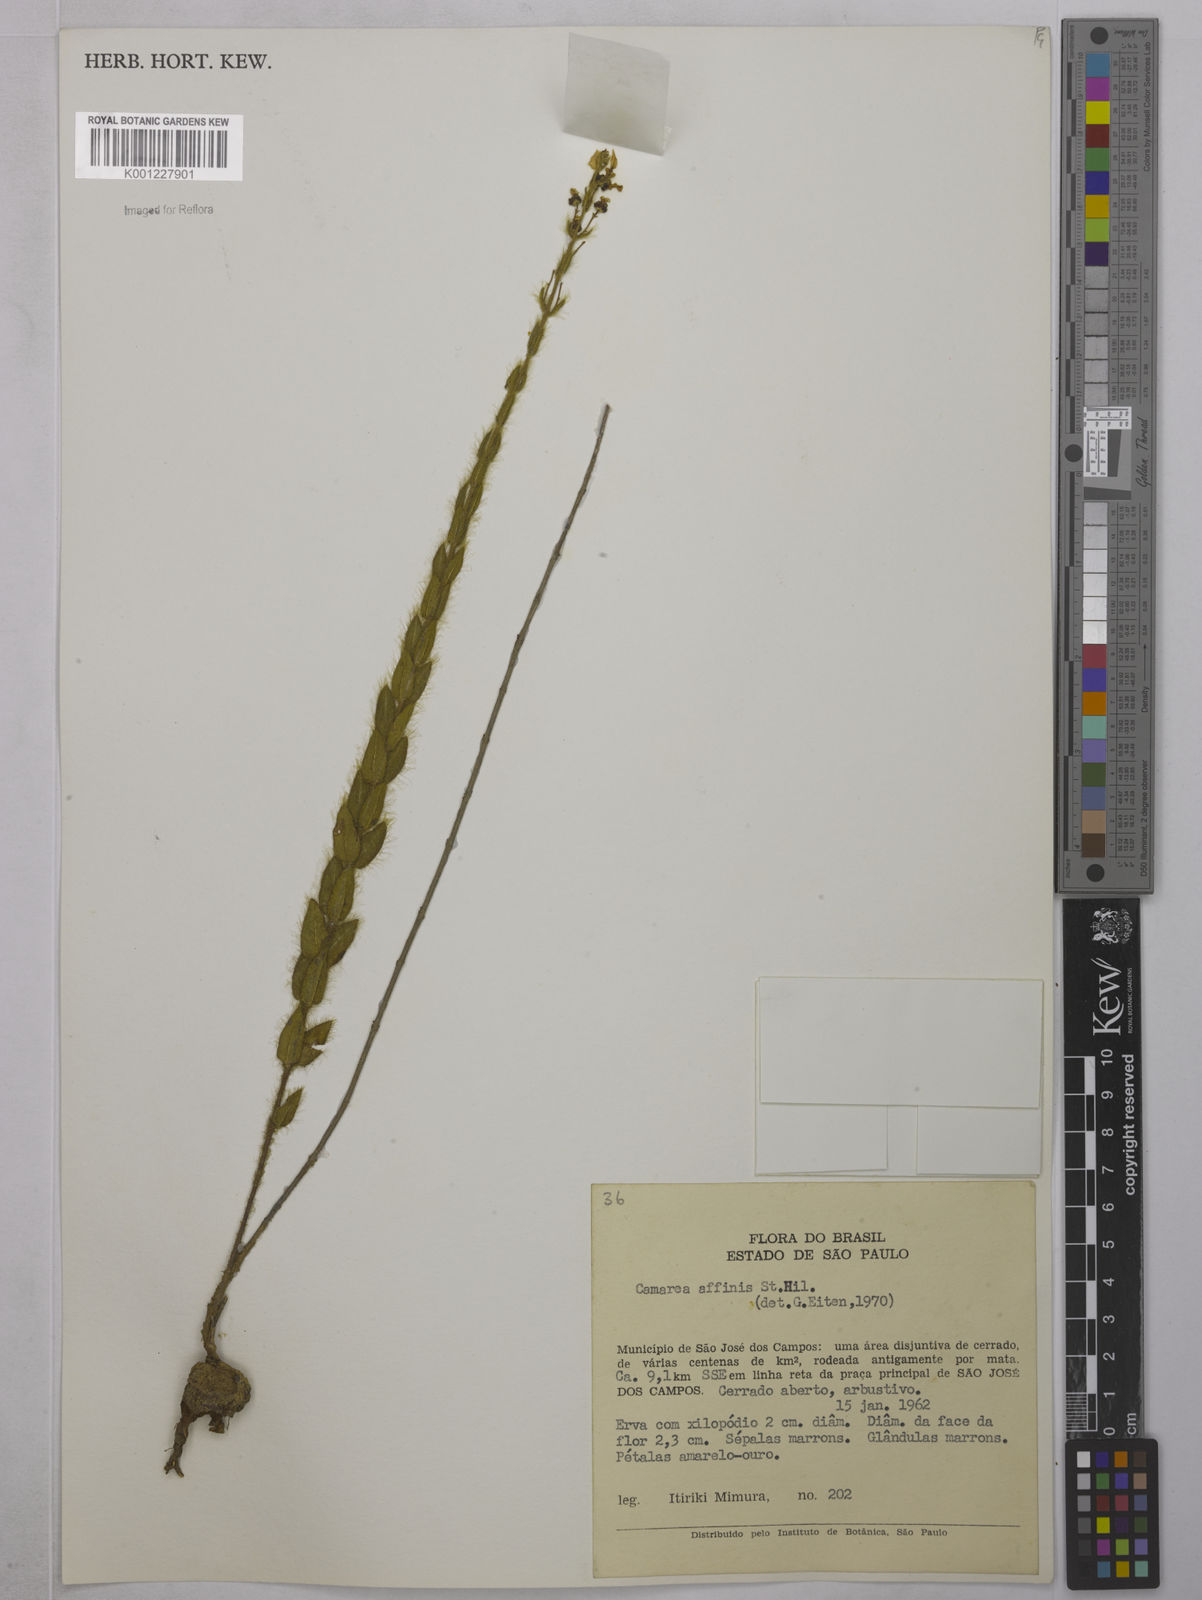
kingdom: Plantae
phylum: Tracheophyta
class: Magnoliopsida
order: Malpighiales
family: Malpighiaceae
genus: Camarea
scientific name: Camarea affinis
